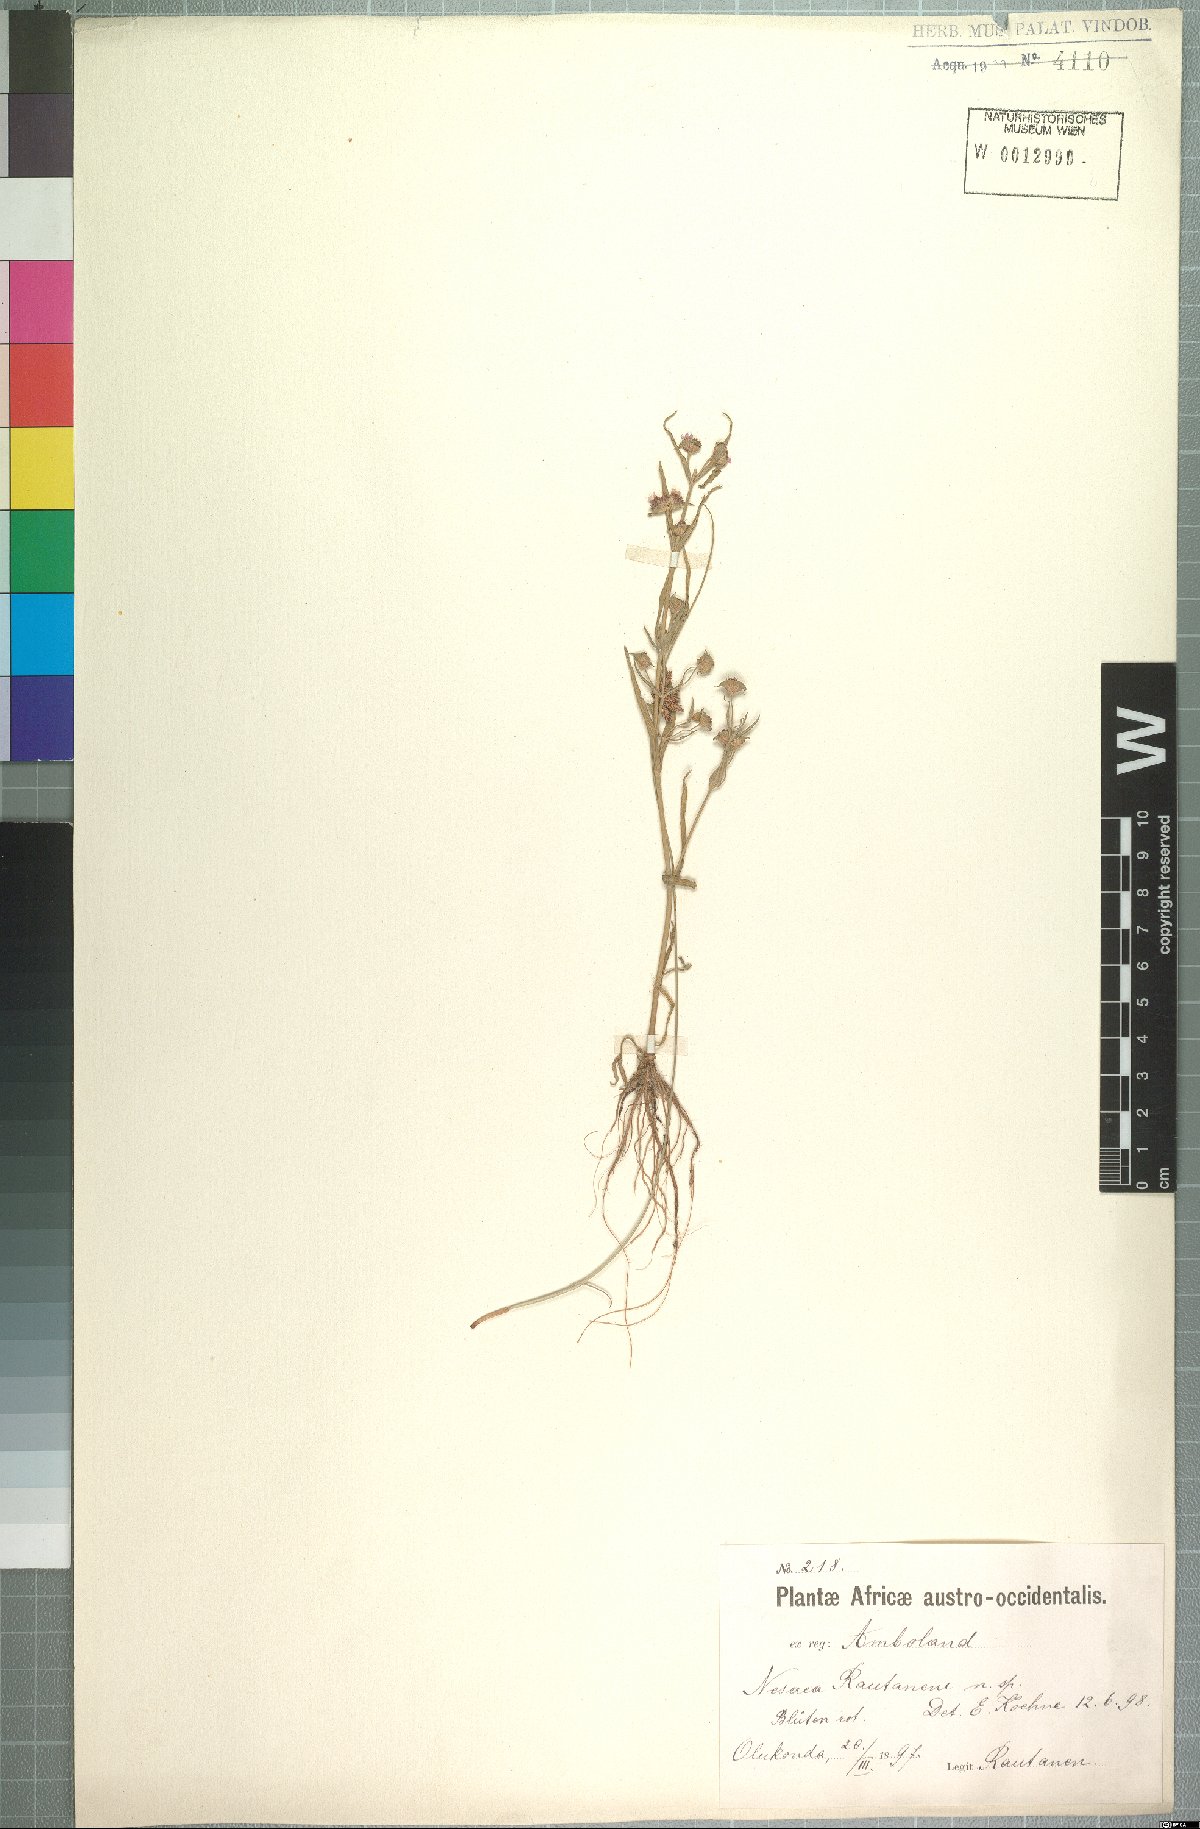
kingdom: Plantae
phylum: Tracheophyta
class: Magnoliopsida
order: Myrtales
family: Lythraceae
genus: Ammannia
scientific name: Ammannia rautanenii
